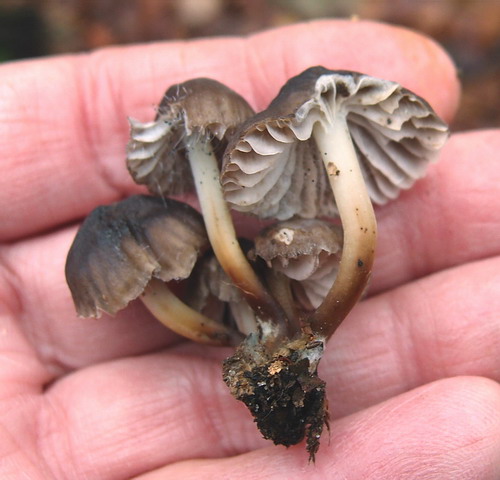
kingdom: Fungi
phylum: Basidiomycota
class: Agaricomycetes
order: Agaricales
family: Mycenaceae
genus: Mycena
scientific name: Mycena inclinata
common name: nikkende huesvamp
